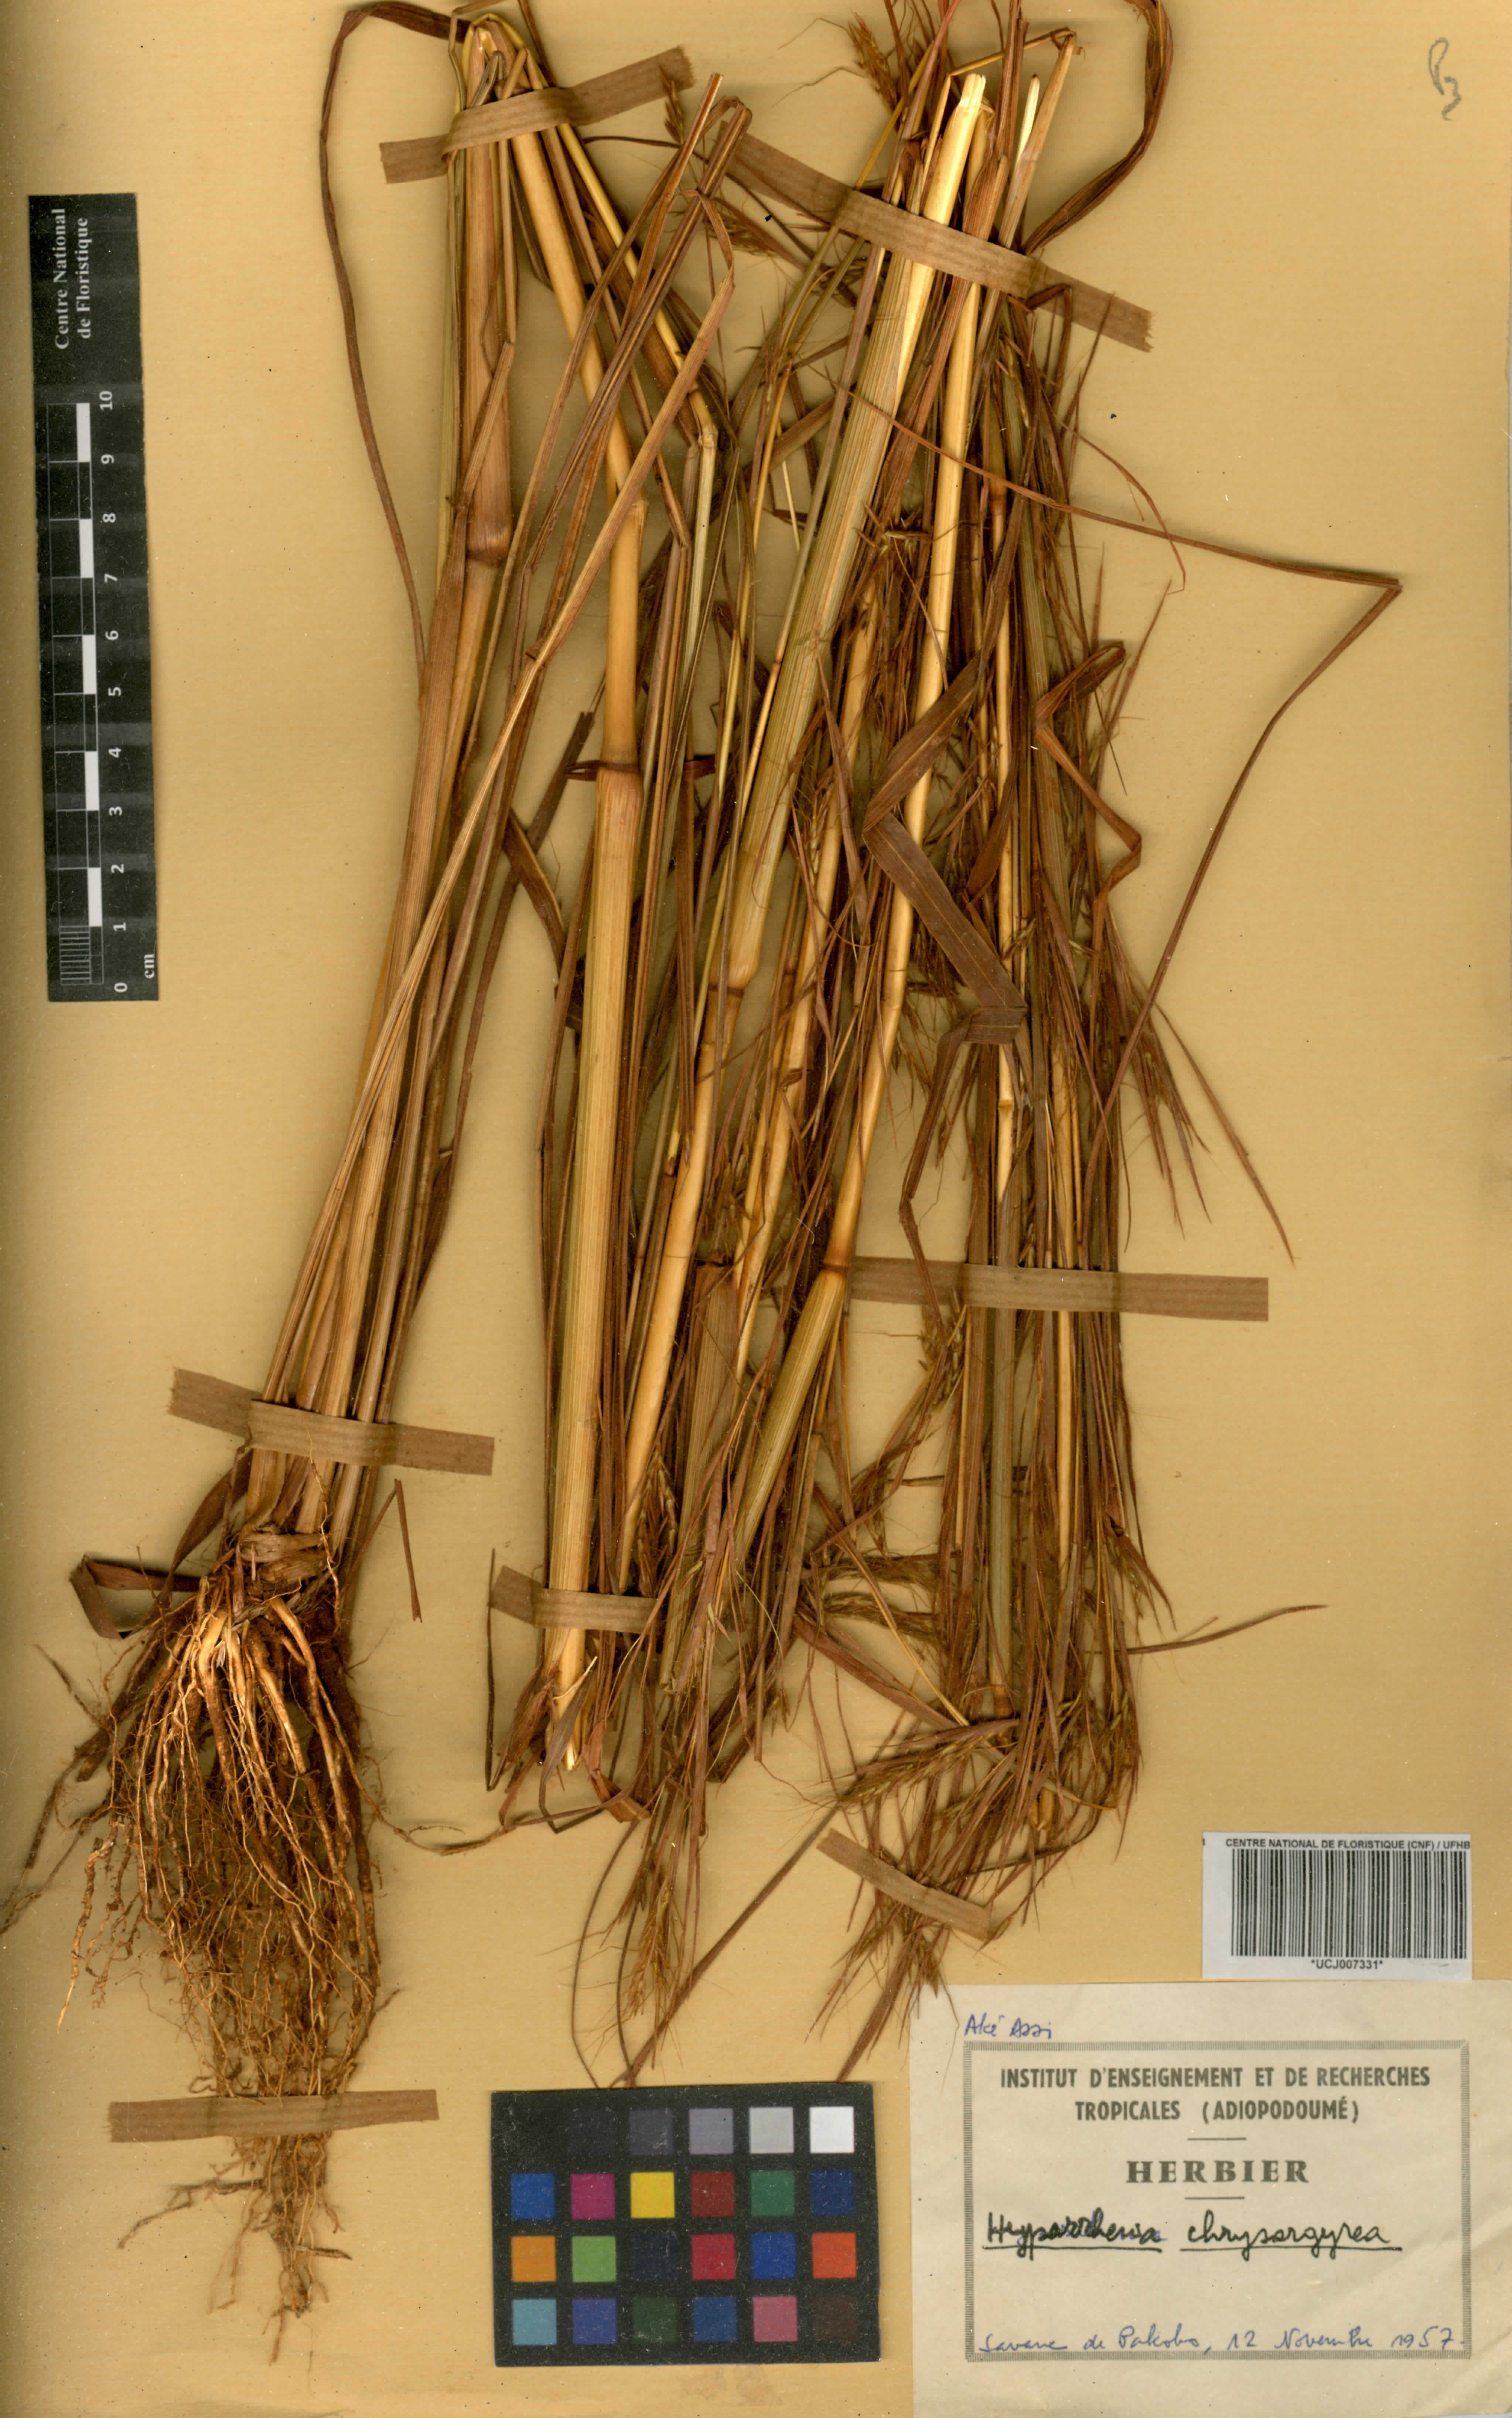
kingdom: Plantae
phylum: Tracheophyta
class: Liliopsida
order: Poales
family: Poaceae
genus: Hyparrhenia
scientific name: Hyparrhenia nyassae
